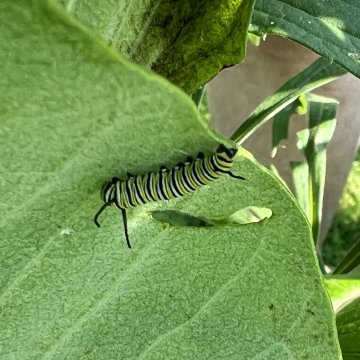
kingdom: Animalia
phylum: Arthropoda
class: Insecta
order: Lepidoptera
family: Nymphalidae
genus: Danaus
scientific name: Danaus plexippus
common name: Monarch
